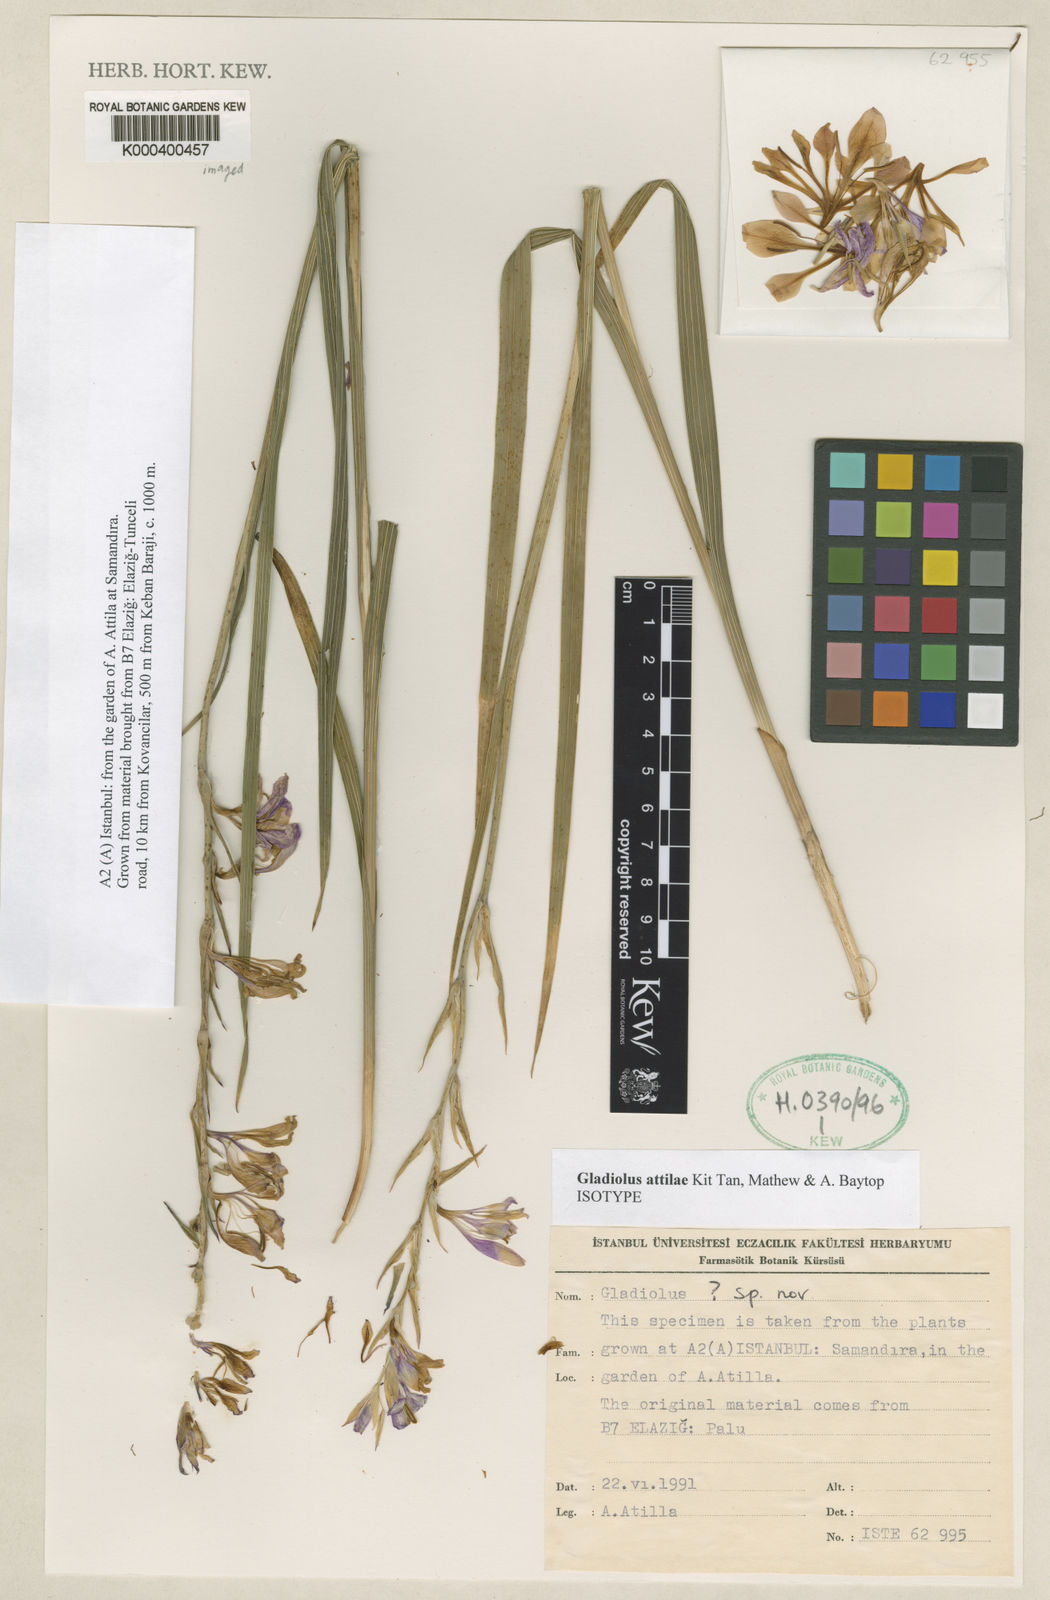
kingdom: Plantae
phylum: Tracheophyta
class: Liliopsida
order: Asparagales
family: Iridaceae
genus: Gladiolus
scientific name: Gladiolus antakiensis
